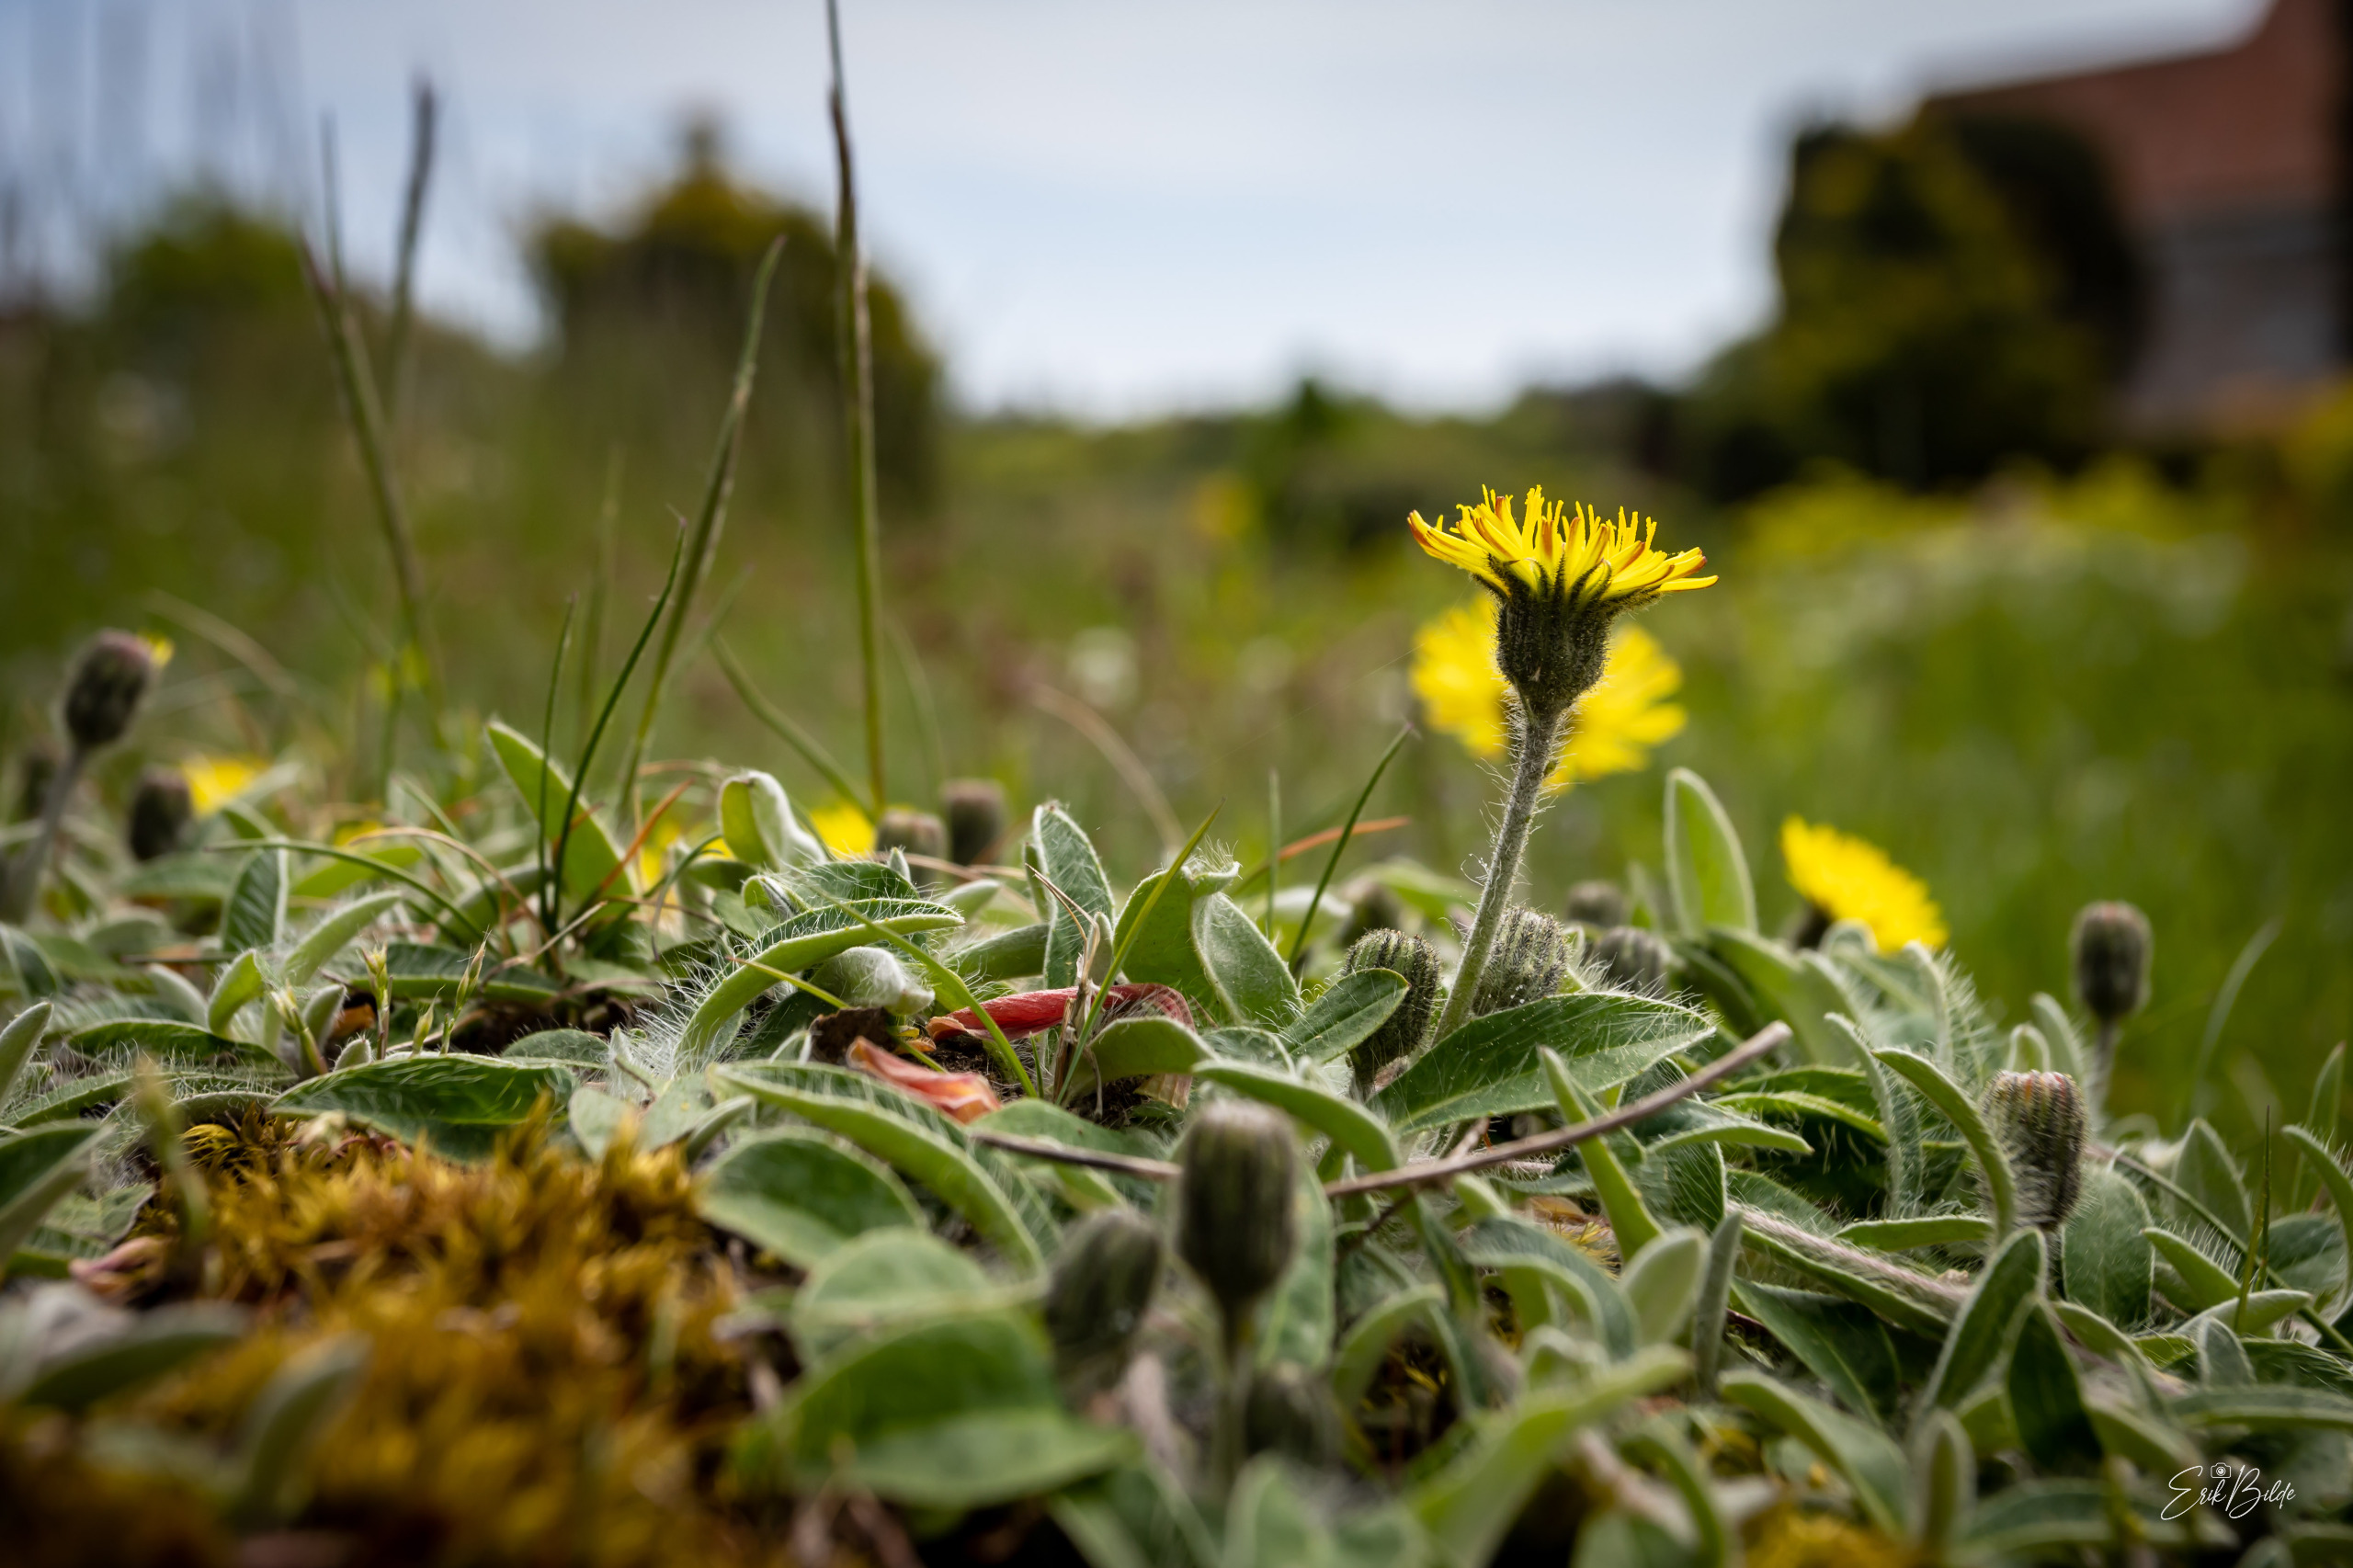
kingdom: Plantae
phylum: Tracheophyta
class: Magnoliopsida
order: Asterales
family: Asteraceae
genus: Pilosella
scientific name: Pilosella officinarum
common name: Håret høgeurt
